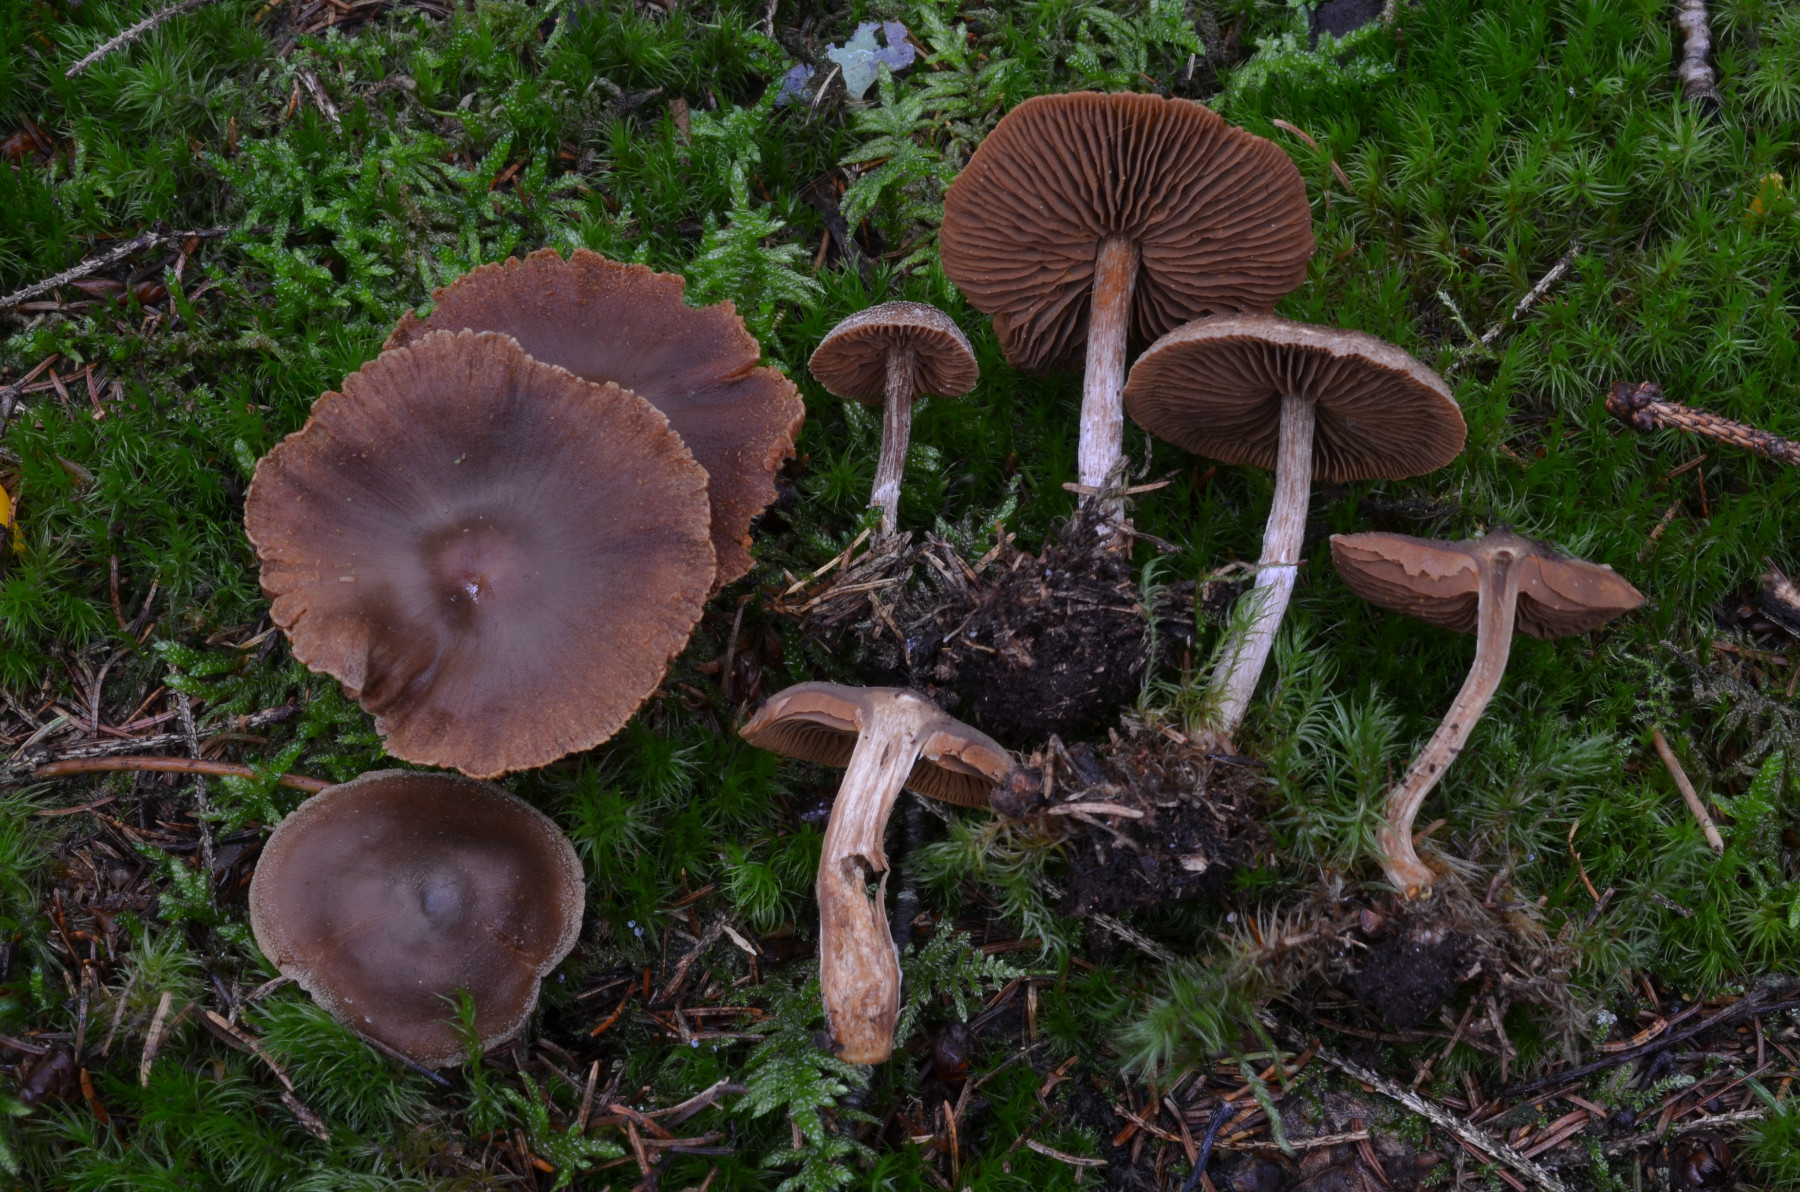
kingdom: Fungi
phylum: Basidiomycota
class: Agaricomycetes
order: Agaricales
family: Cortinariaceae
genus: Cortinarius
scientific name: Cortinarius flabellus
